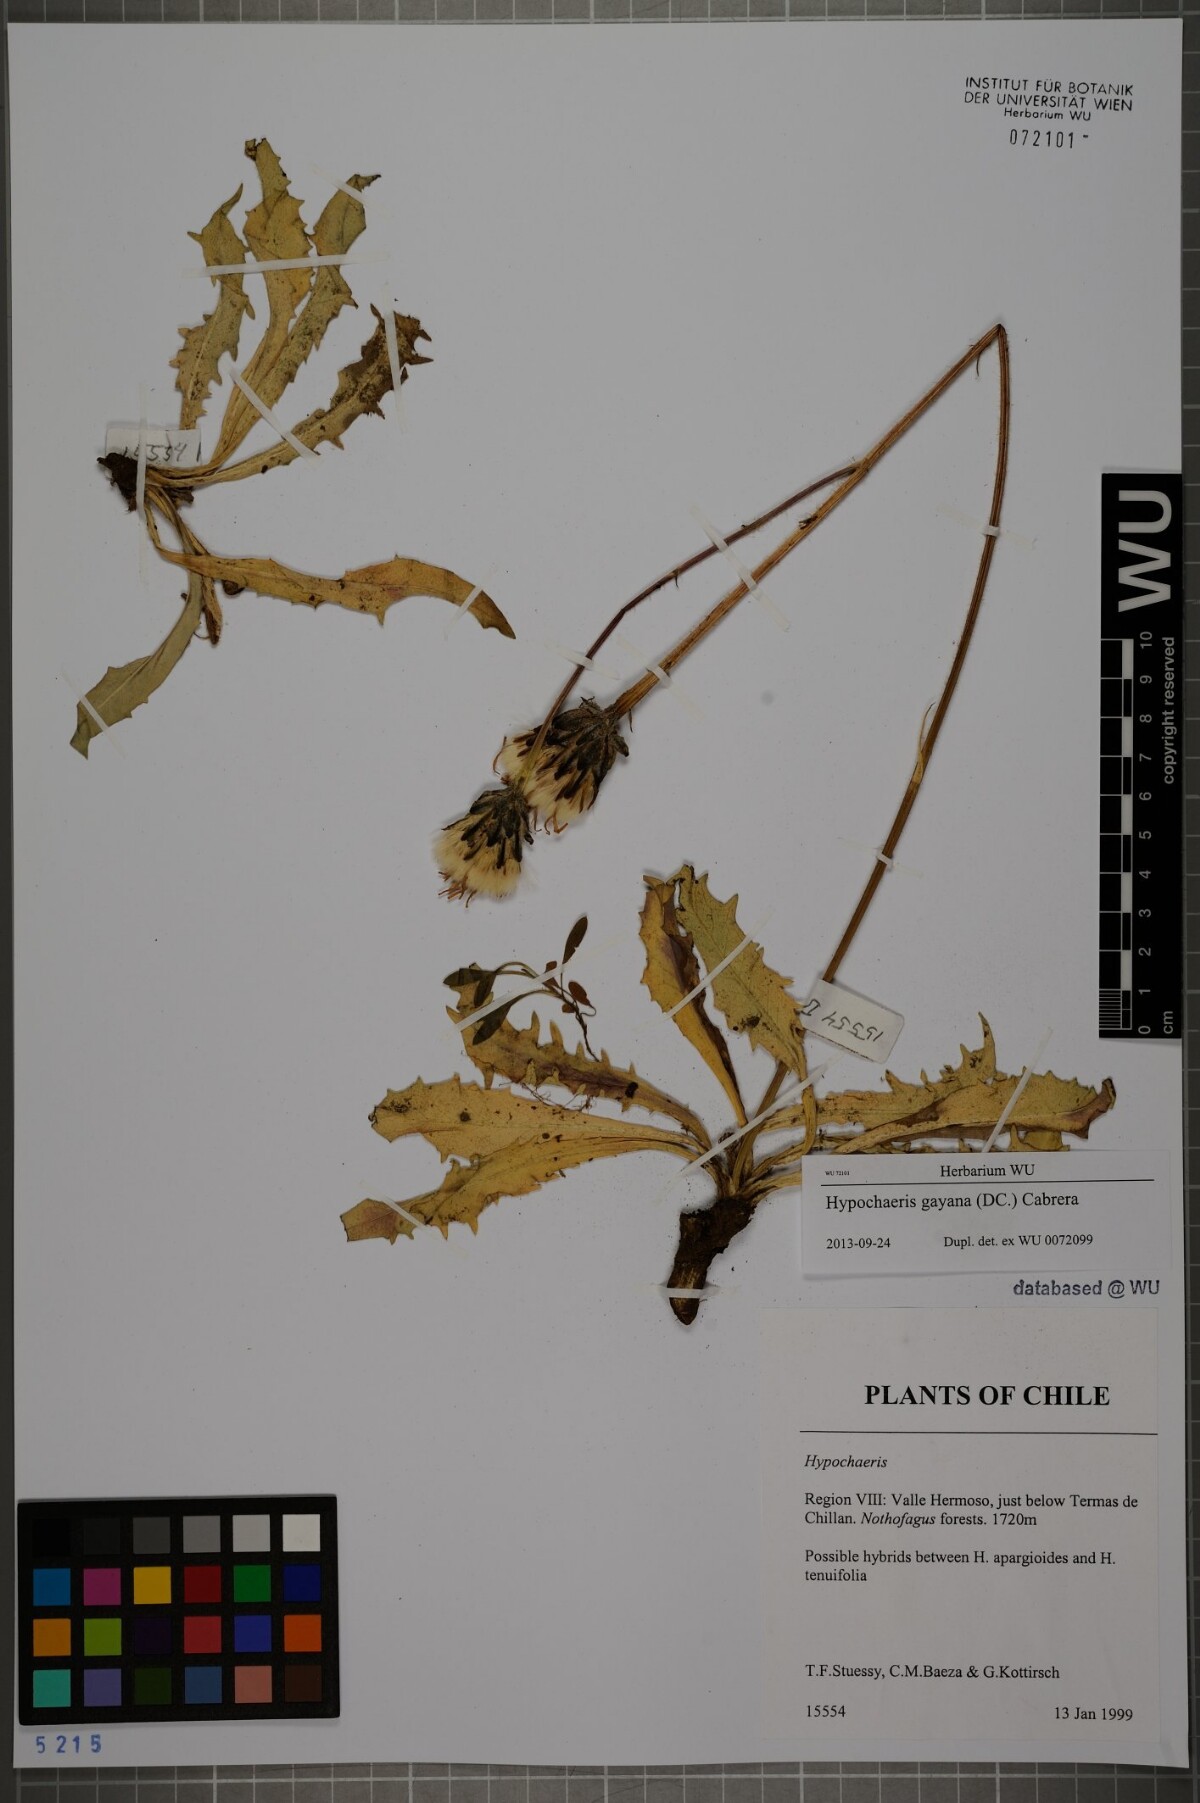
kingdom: Plantae
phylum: Tracheophyta
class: Magnoliopsida
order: Asterales
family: Asteraceae
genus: Hypochaeris
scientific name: Hypochaeris melanolepis
